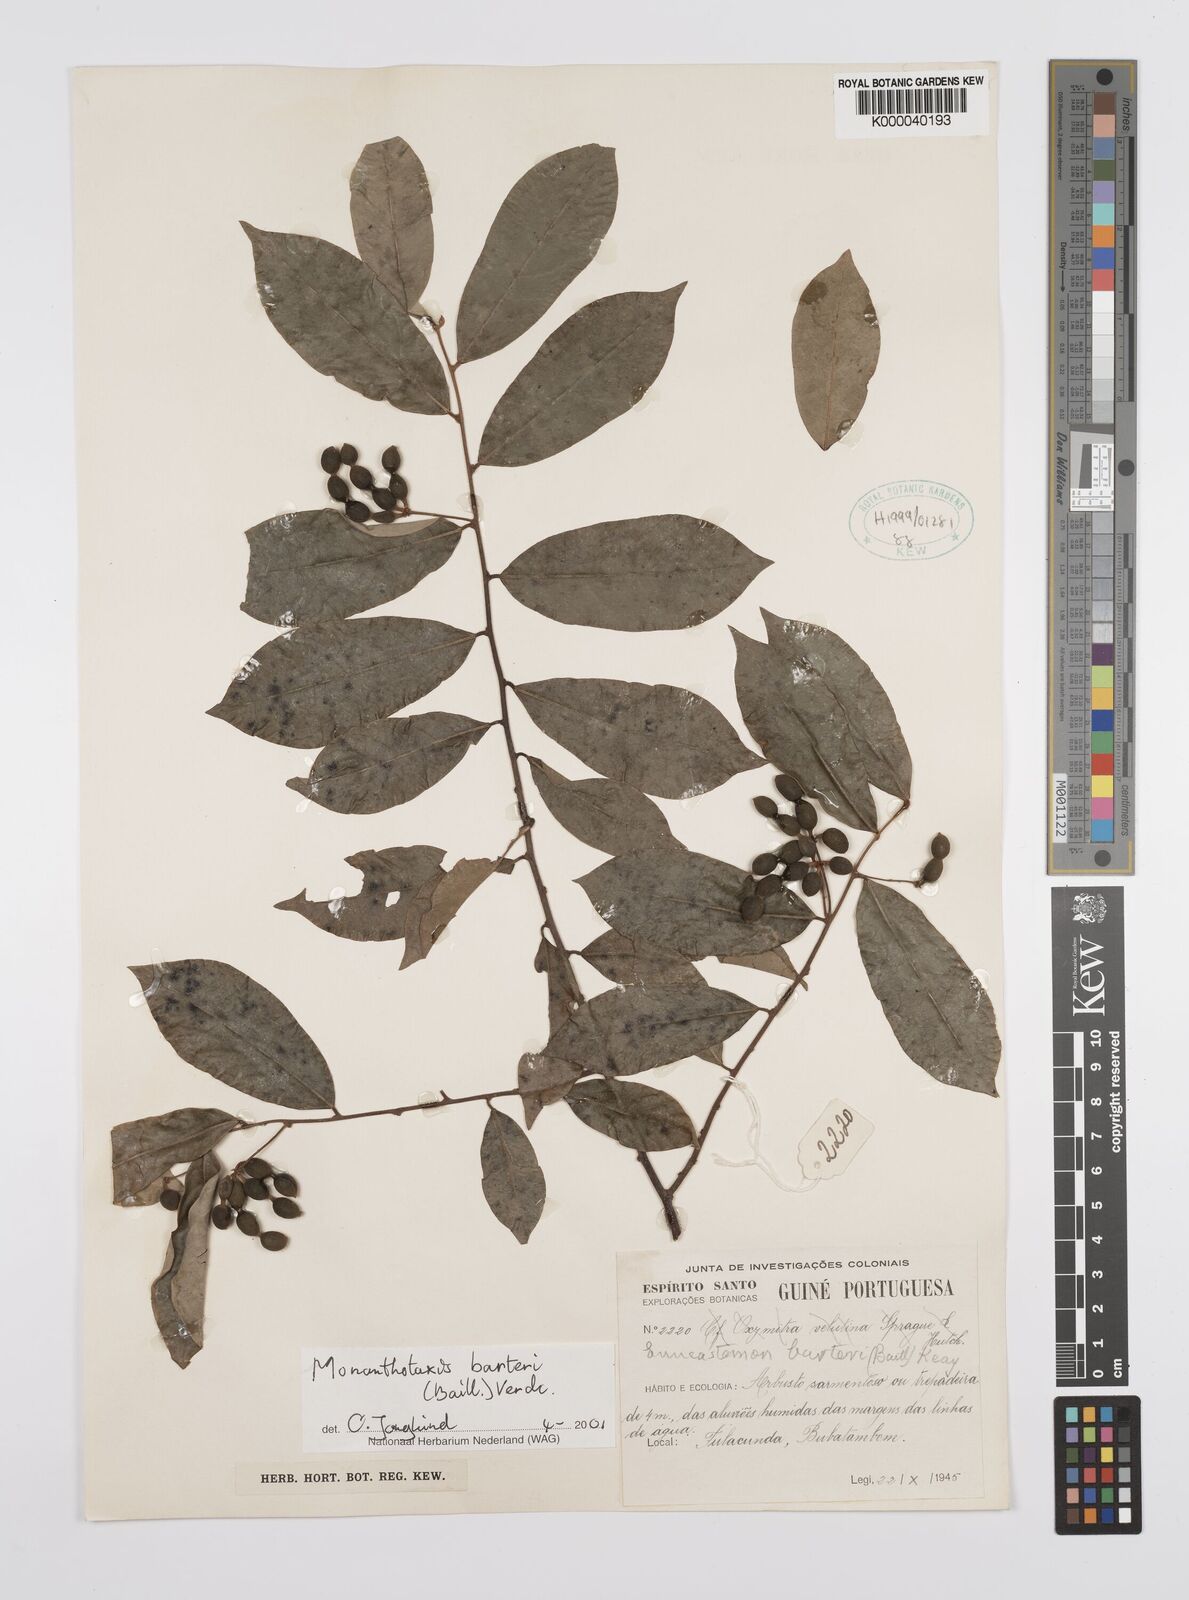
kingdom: Plantae
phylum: Tracheophyta
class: Magnoliopsida
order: Magnoliales
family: Annonaceae
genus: Monanthotaxis
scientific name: Monanthotaxis barteri
